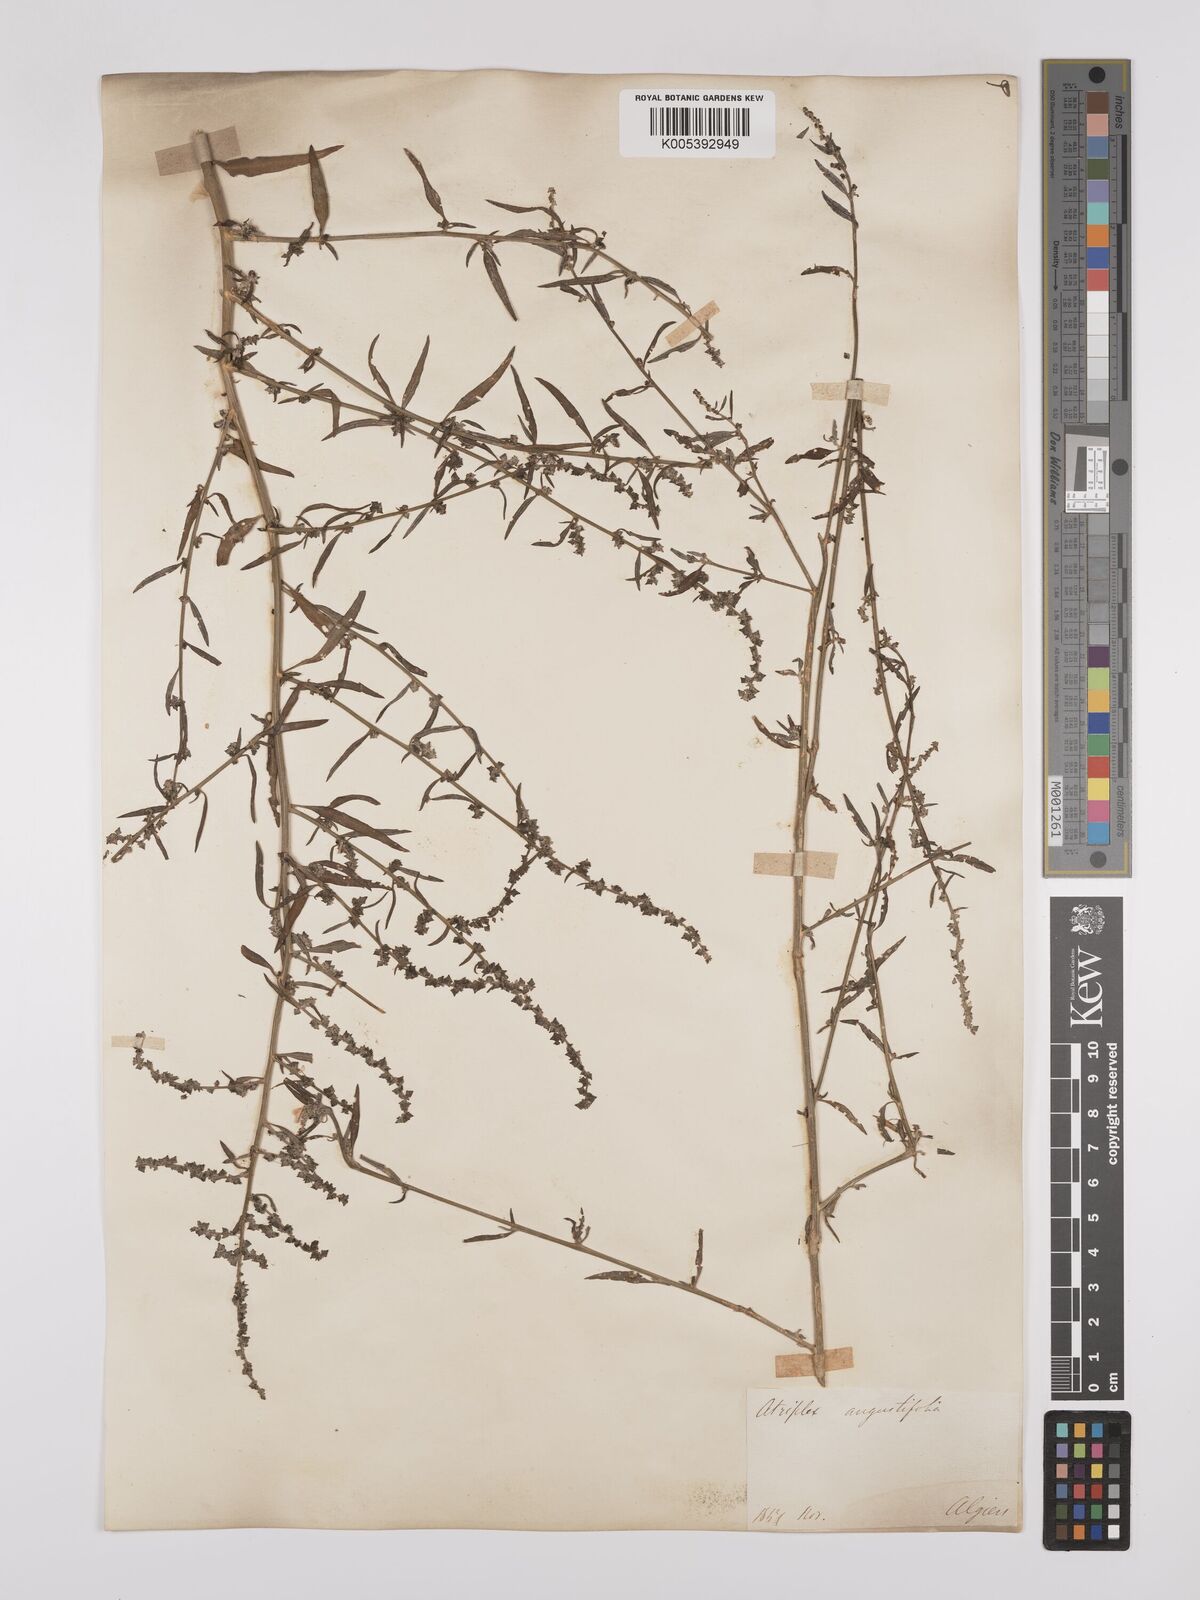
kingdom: Plantae
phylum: Tracheophyta
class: Magnoliopsida
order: Caryophyllales
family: Amaranthaceae
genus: Atriplex
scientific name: Atriplex patula
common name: Common orache
